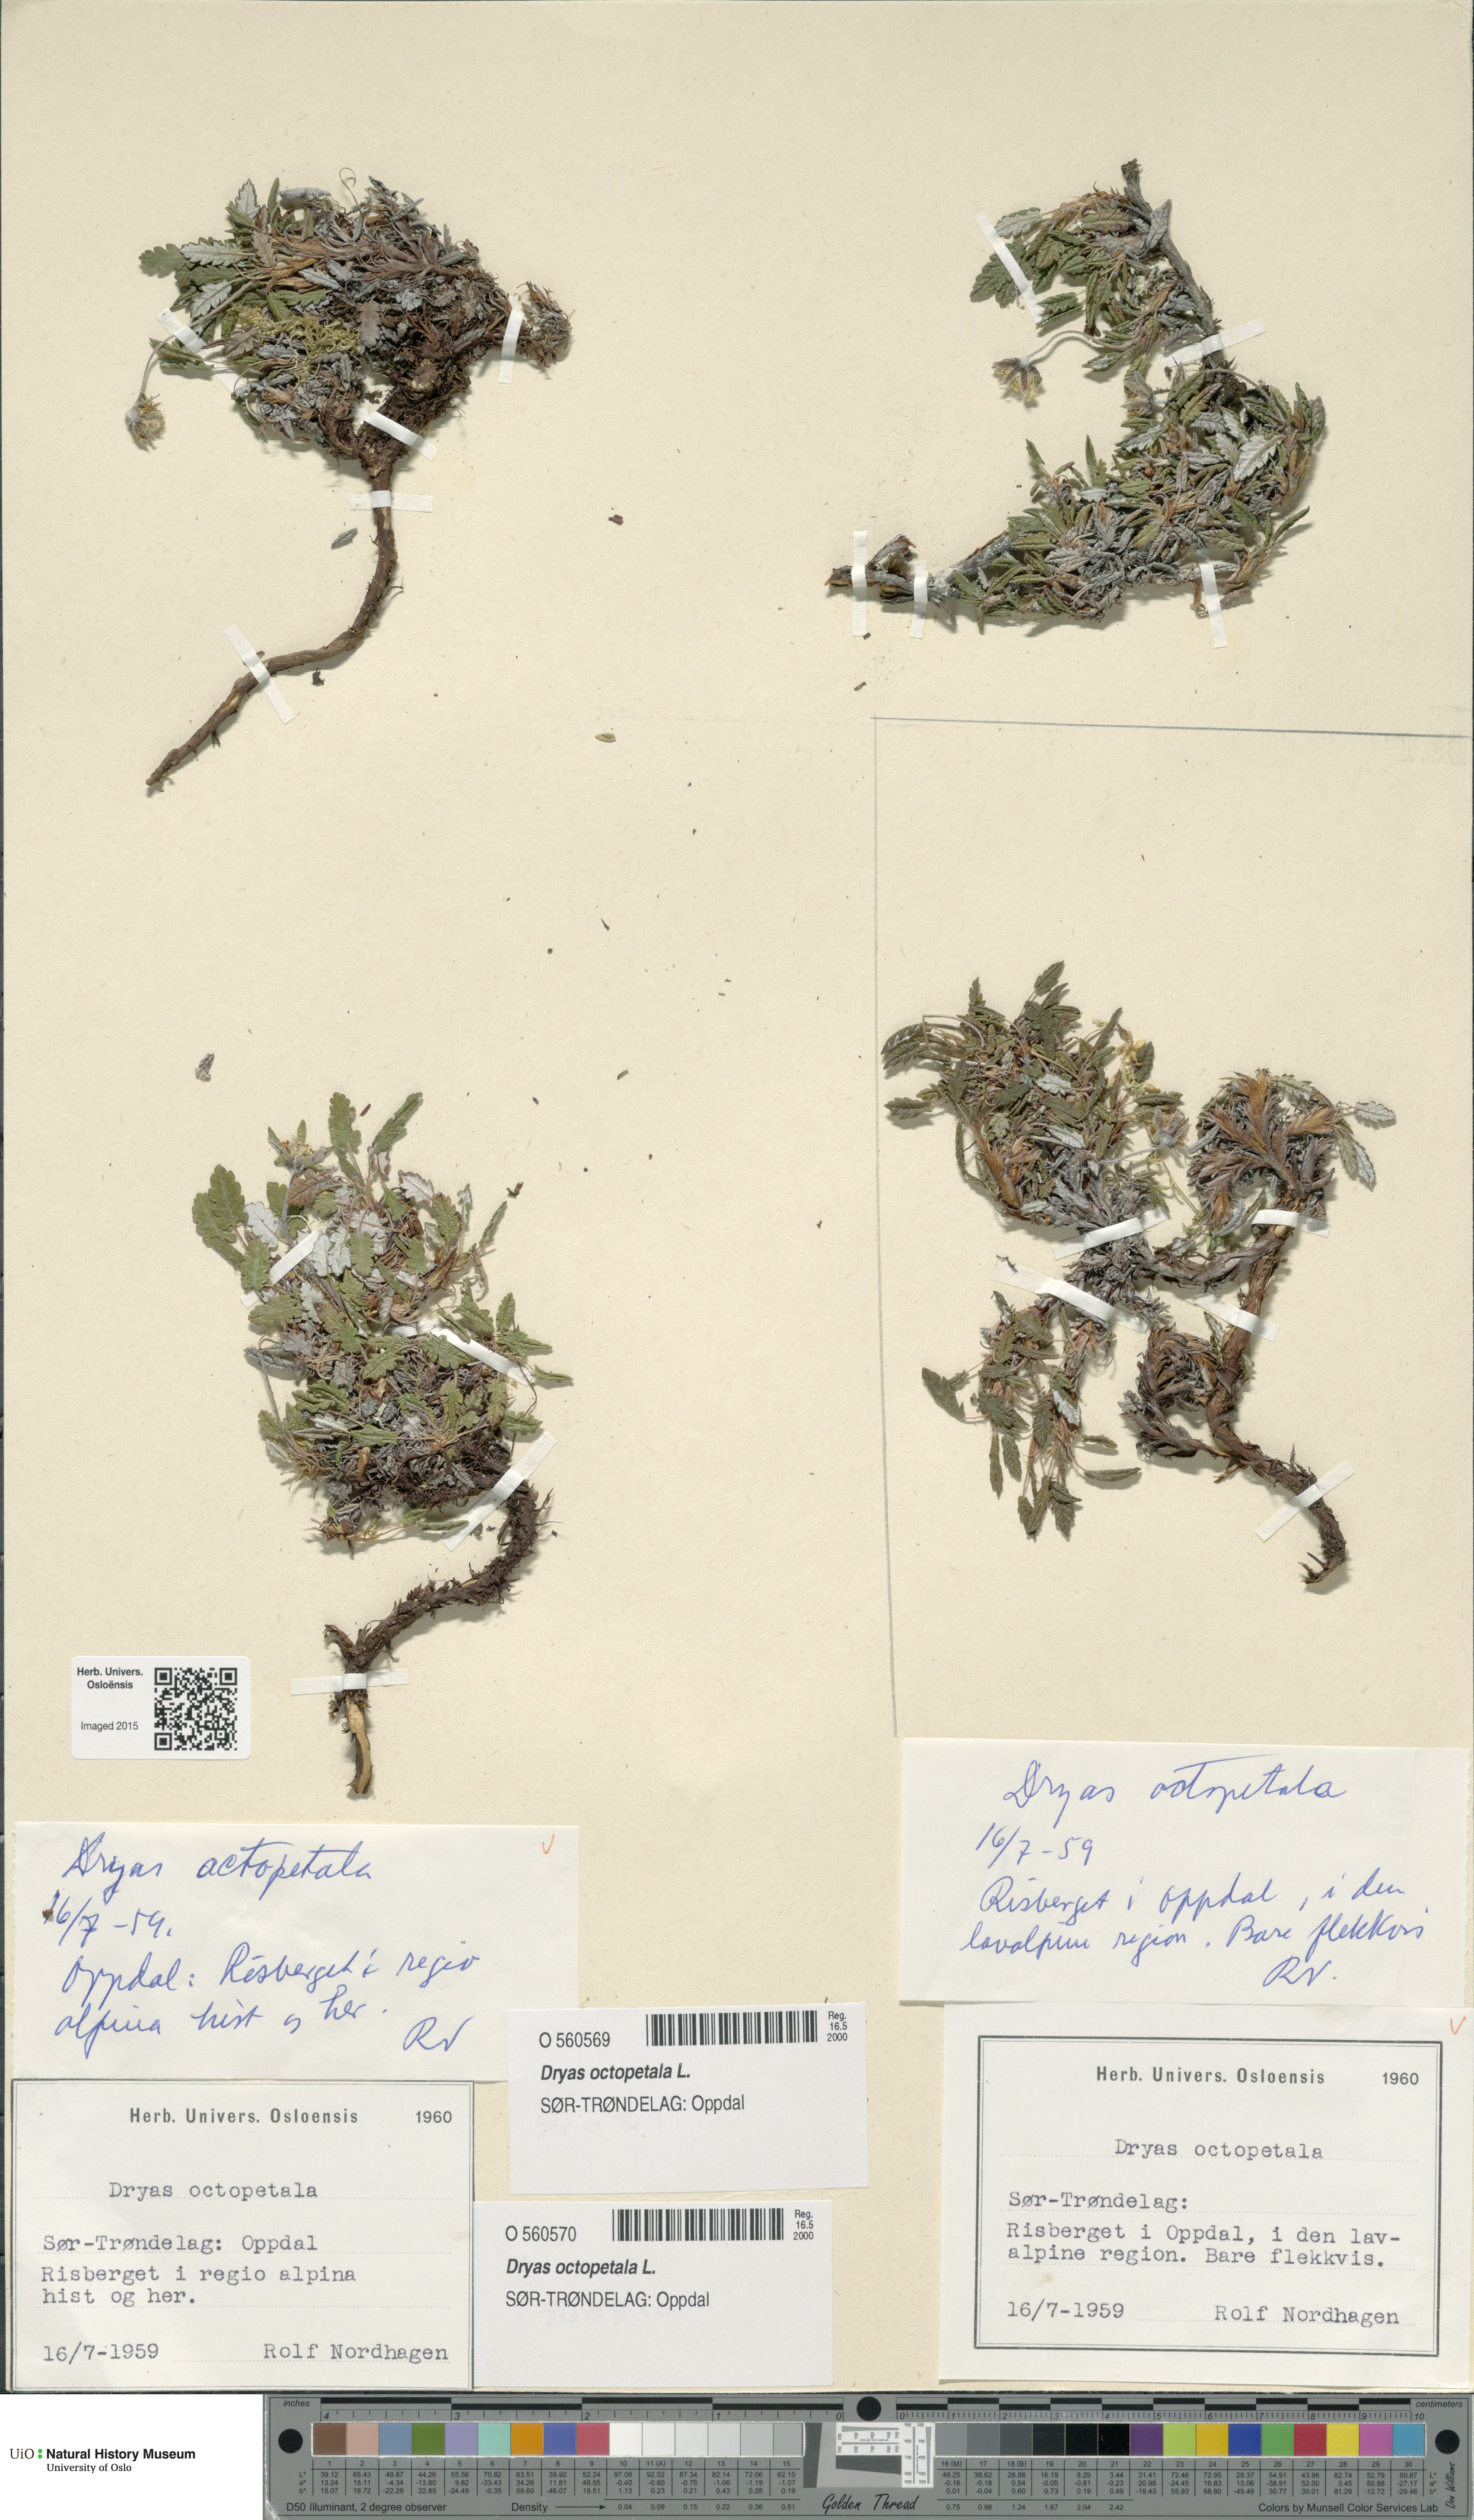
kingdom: Plantae
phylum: Tracheophyta
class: Magnoliopsida
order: Rosales
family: Rosaceae
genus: Dryas
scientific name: Dryas octopetala
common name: Eight-petal mountain-avens
